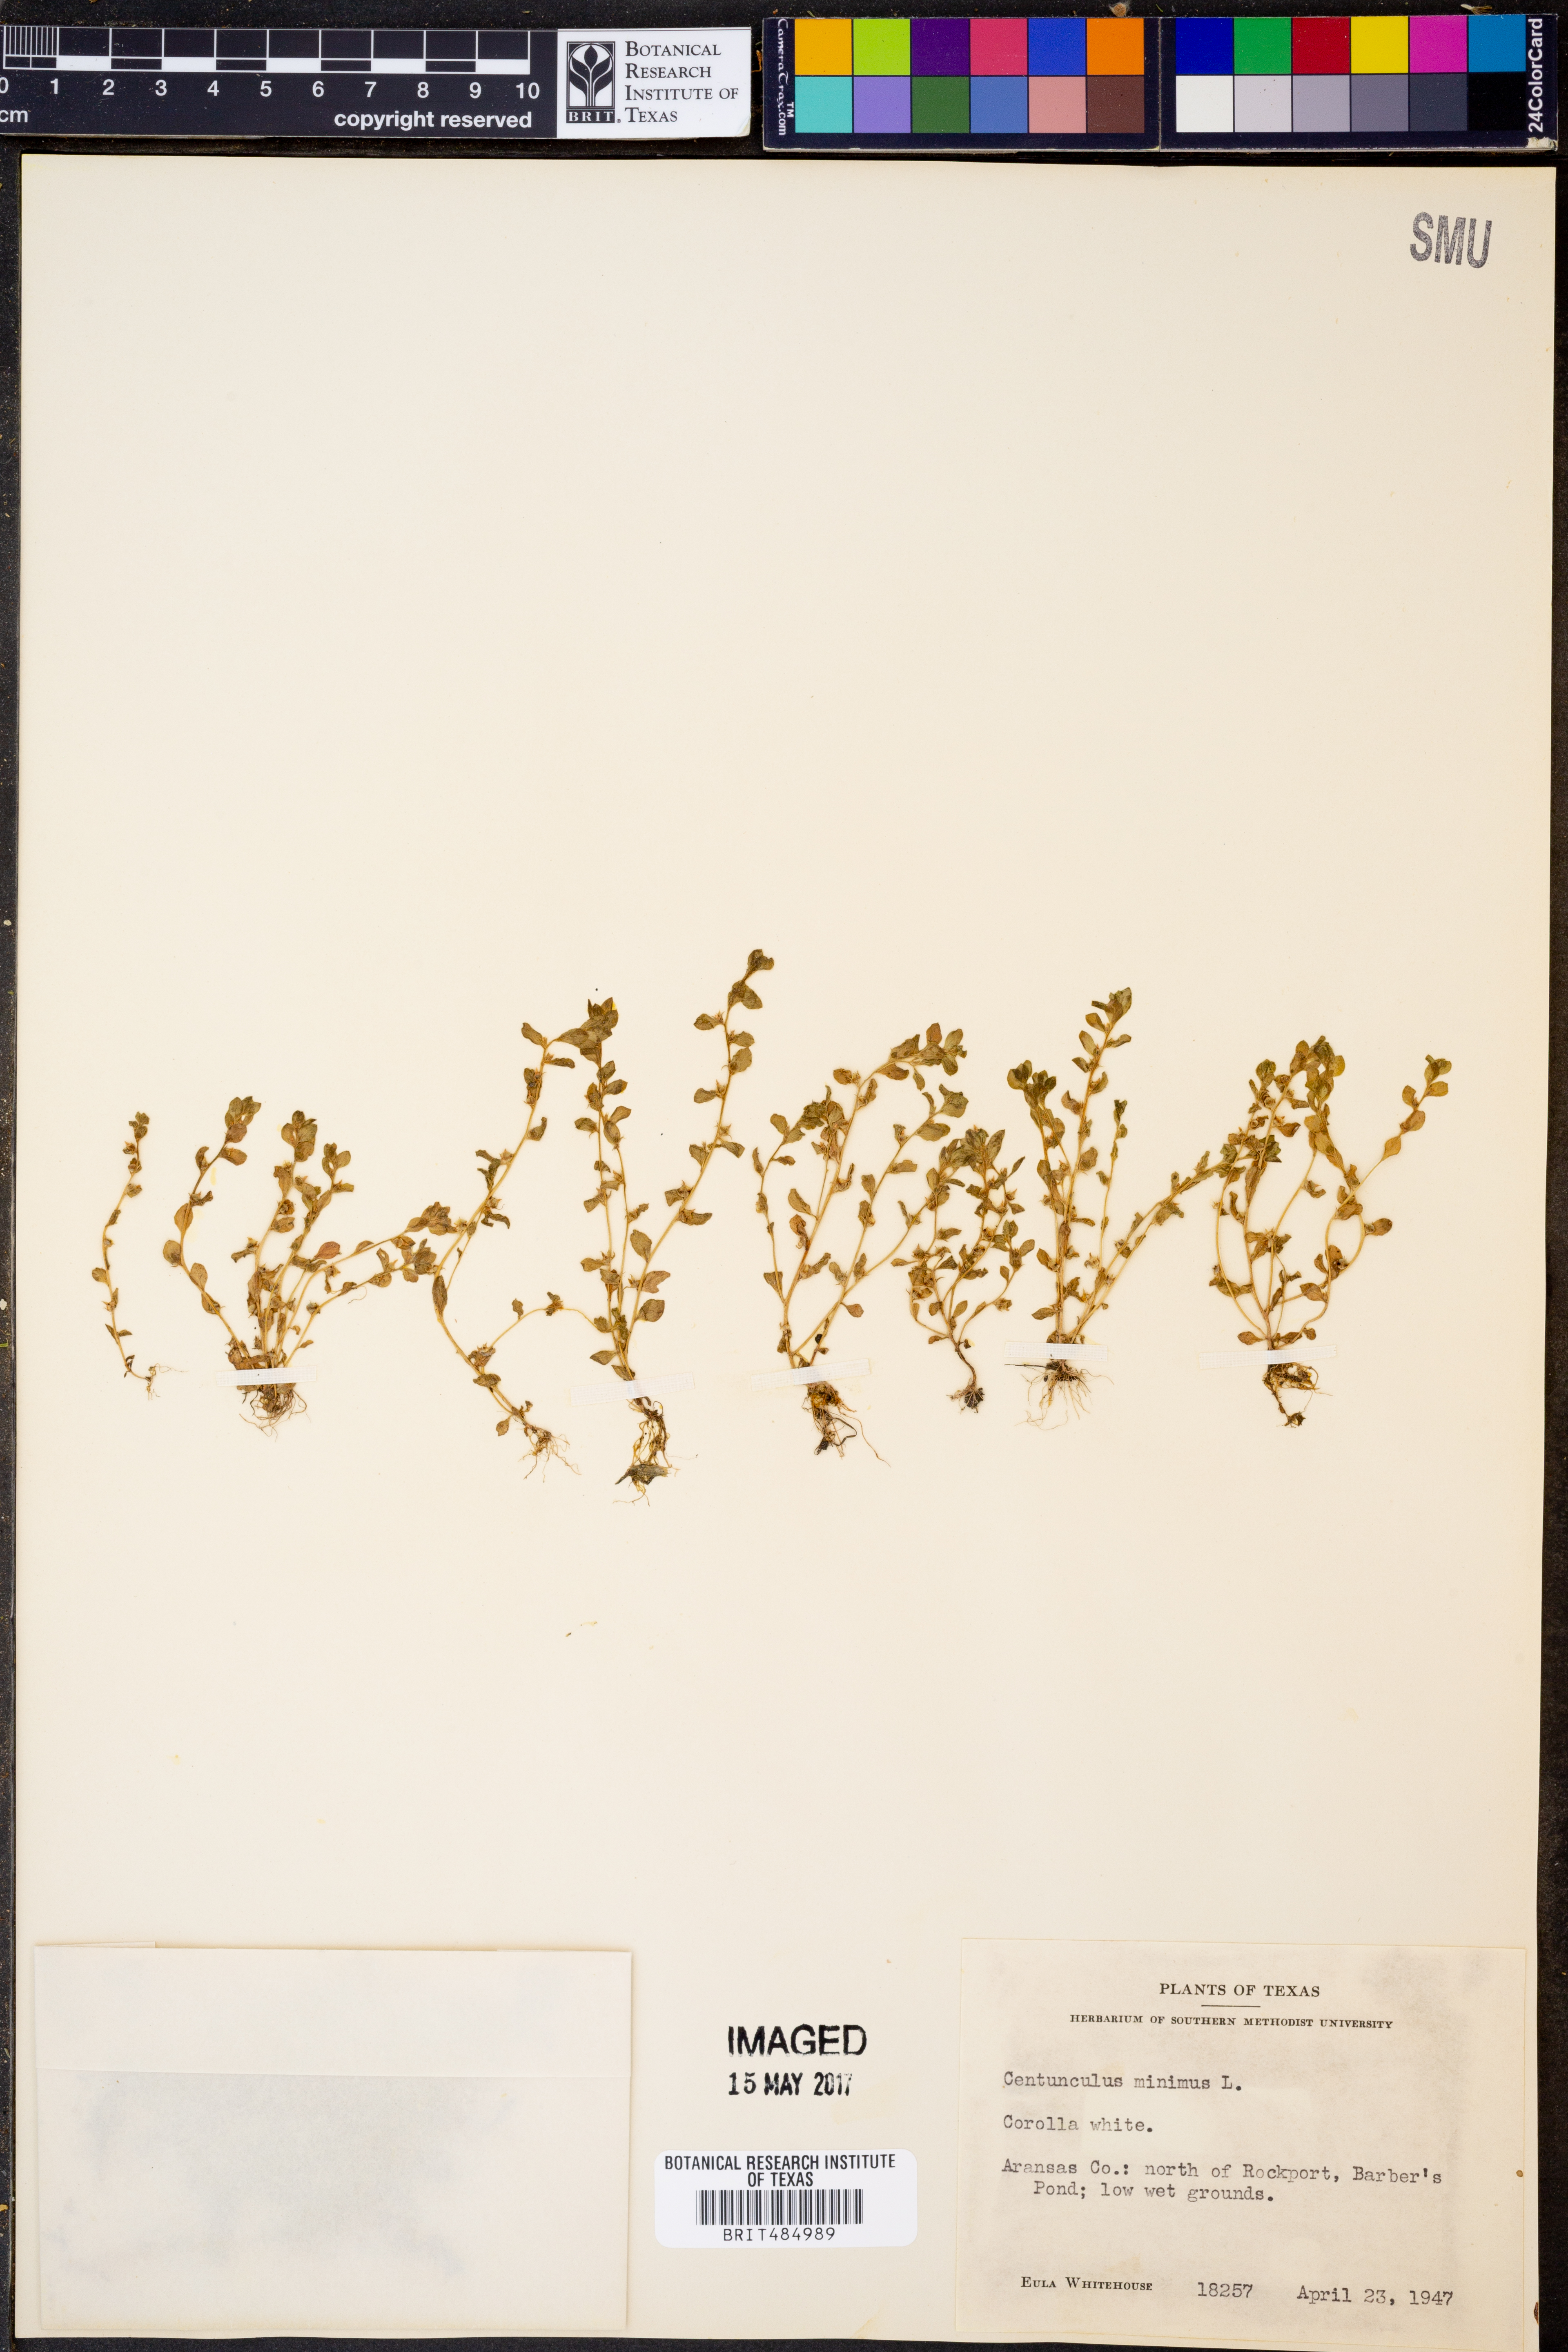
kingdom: Plantae
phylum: Tracheophyta
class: Magnoliopsida
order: Ericales
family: Primulaceae
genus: Lysimachia
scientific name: Lysimachia minima
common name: Chaffweed
